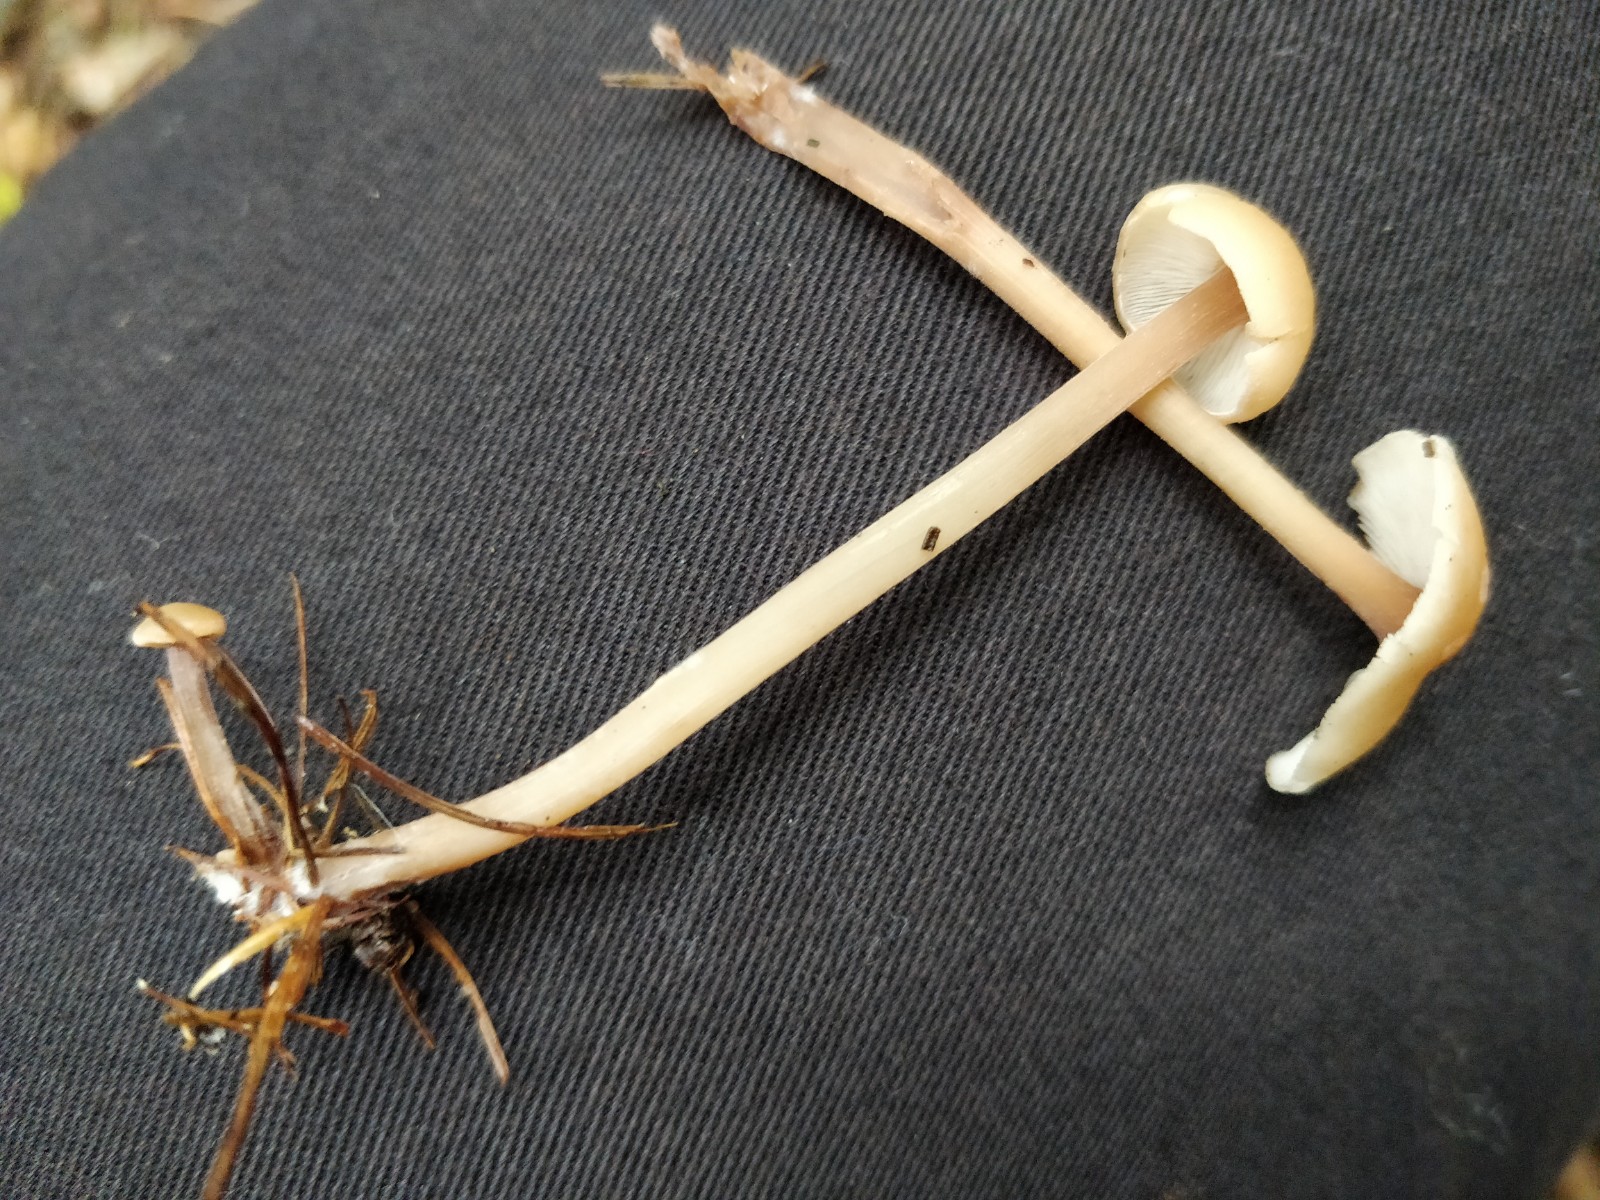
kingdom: Fungi
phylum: Basidiomycota
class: Agaricomycetes
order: Agaricales
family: Omphalotaceae
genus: Collybiopsis
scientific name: Collybiopsis confluens
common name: knippe-fladhat
